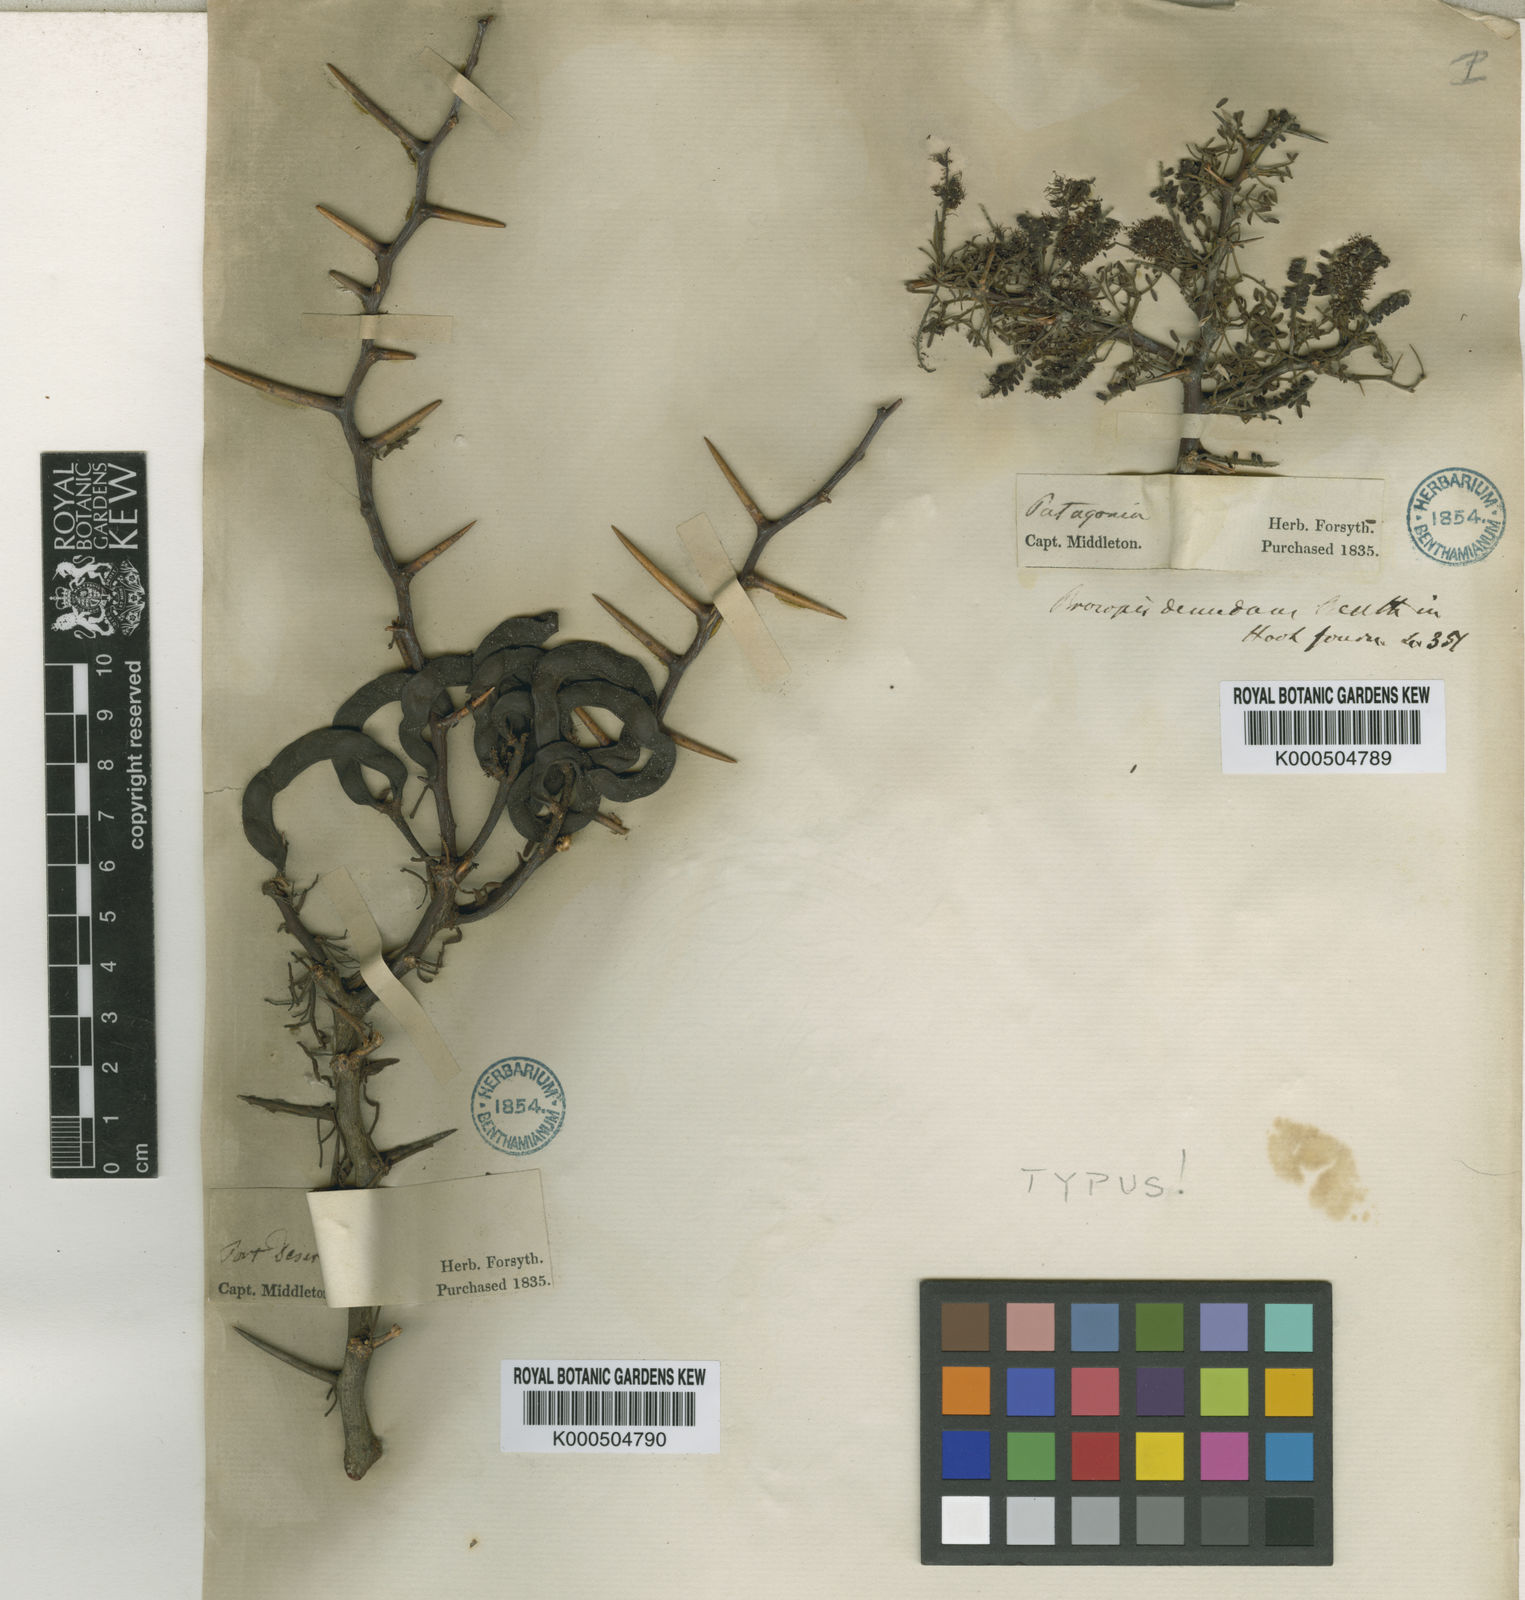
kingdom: Plantae
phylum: Tracheophyta
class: Magnoliopsida
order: Fabales
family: Fabaceae
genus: Prosopis
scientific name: Prosopis denudans
